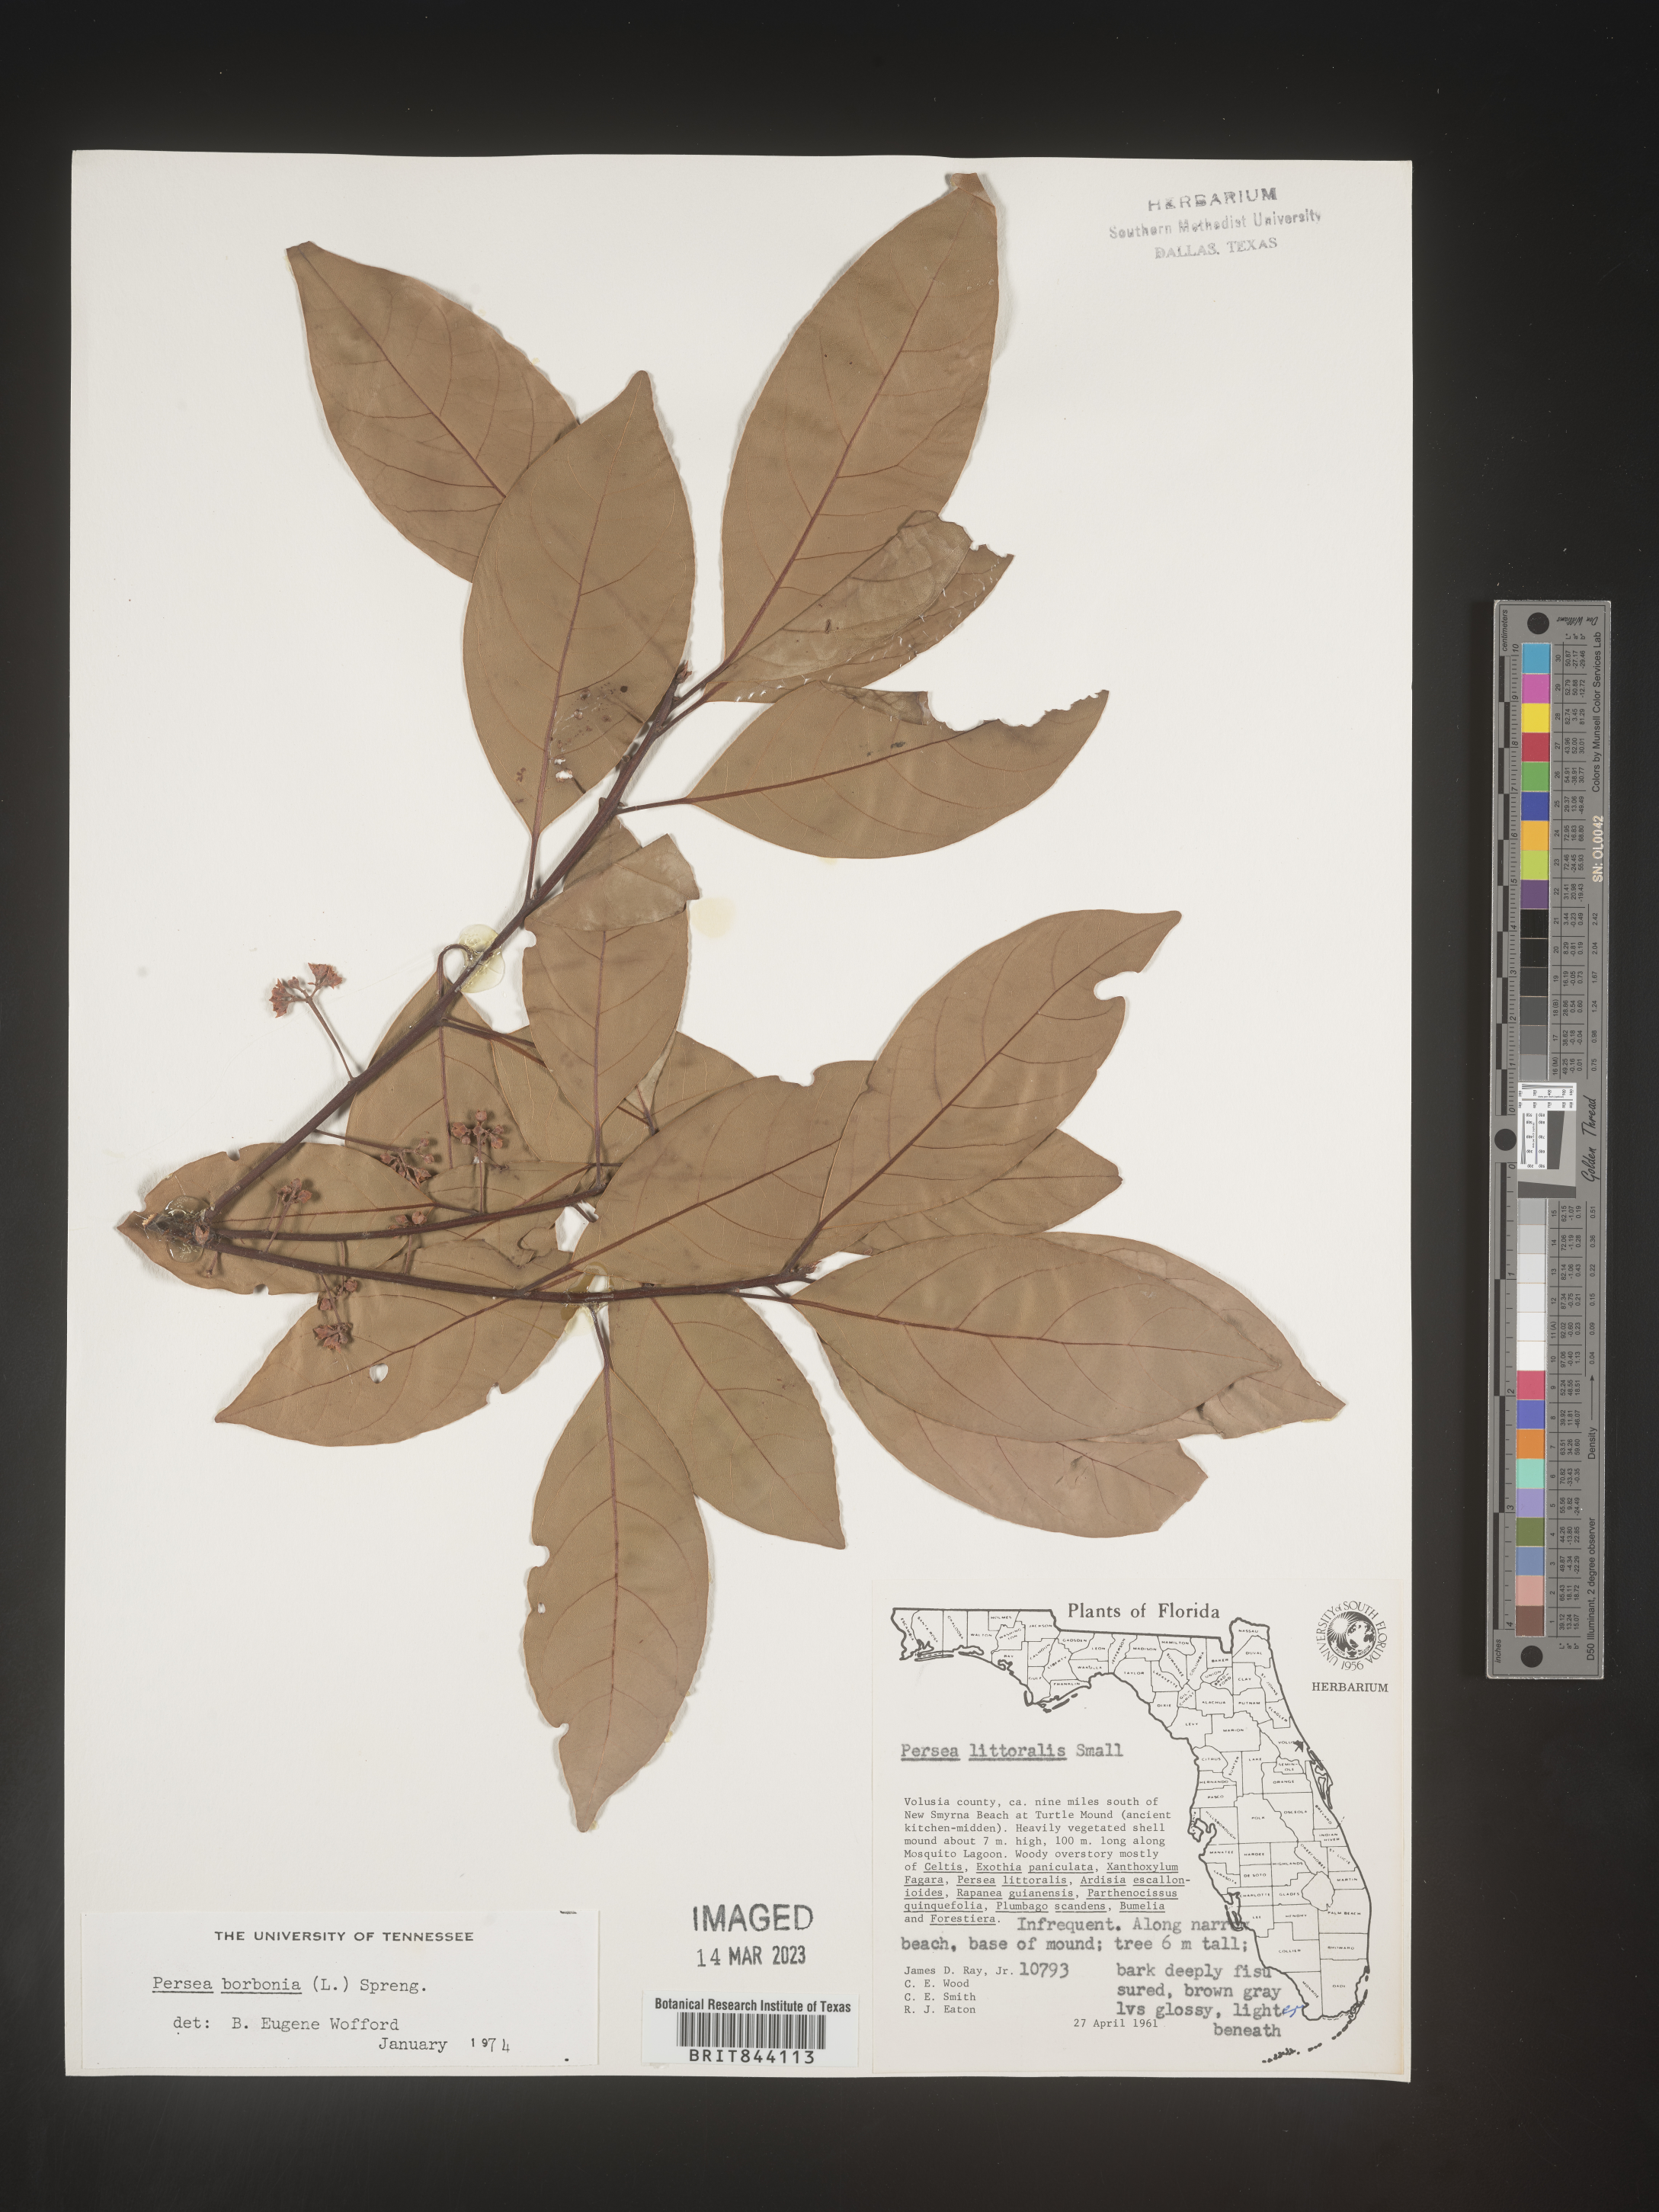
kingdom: Plantae
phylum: Tracheophyta
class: Magnoliopsida
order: Laurales
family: Lauraceae
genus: Persea
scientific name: Persea borbonia
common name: Redbay
